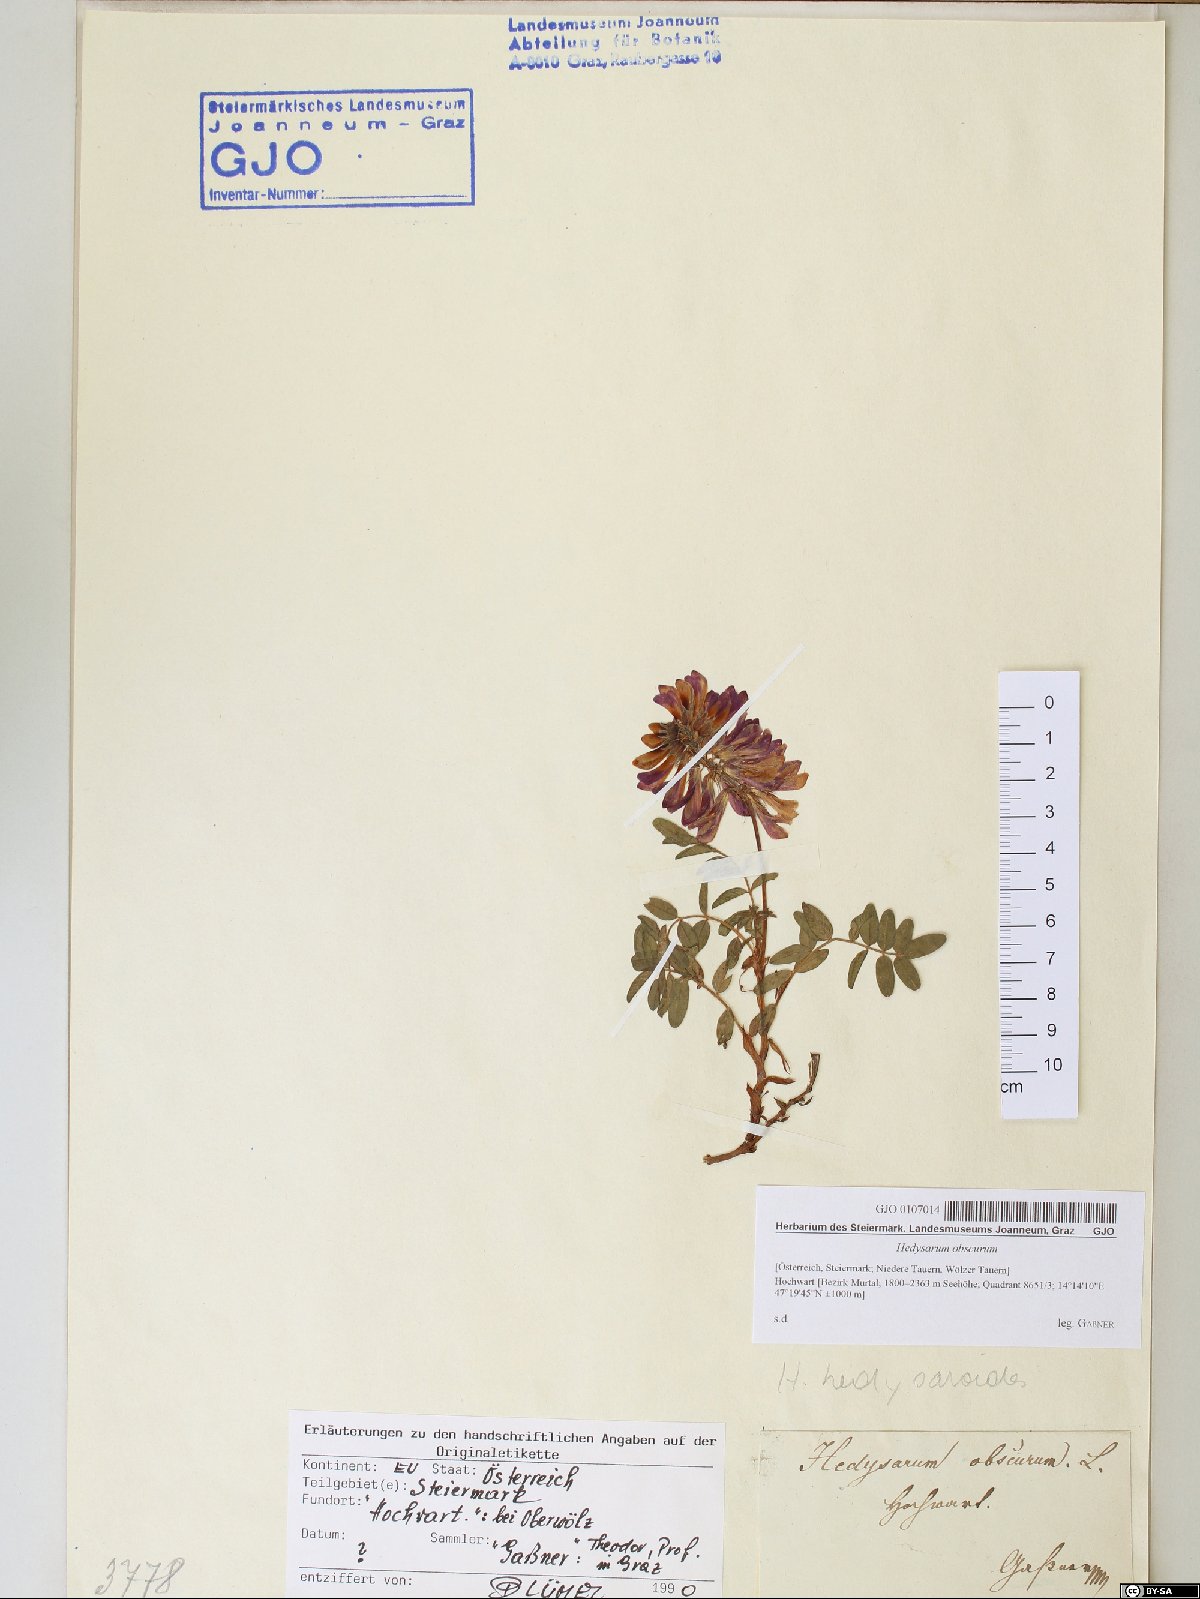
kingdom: Plantae
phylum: Tracheophyta
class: Magnoliopsida
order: Fabales
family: Fabaceae
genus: Hedysarum
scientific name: Hedysarum hedysaroides
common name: Alpine french-honeysuckle
